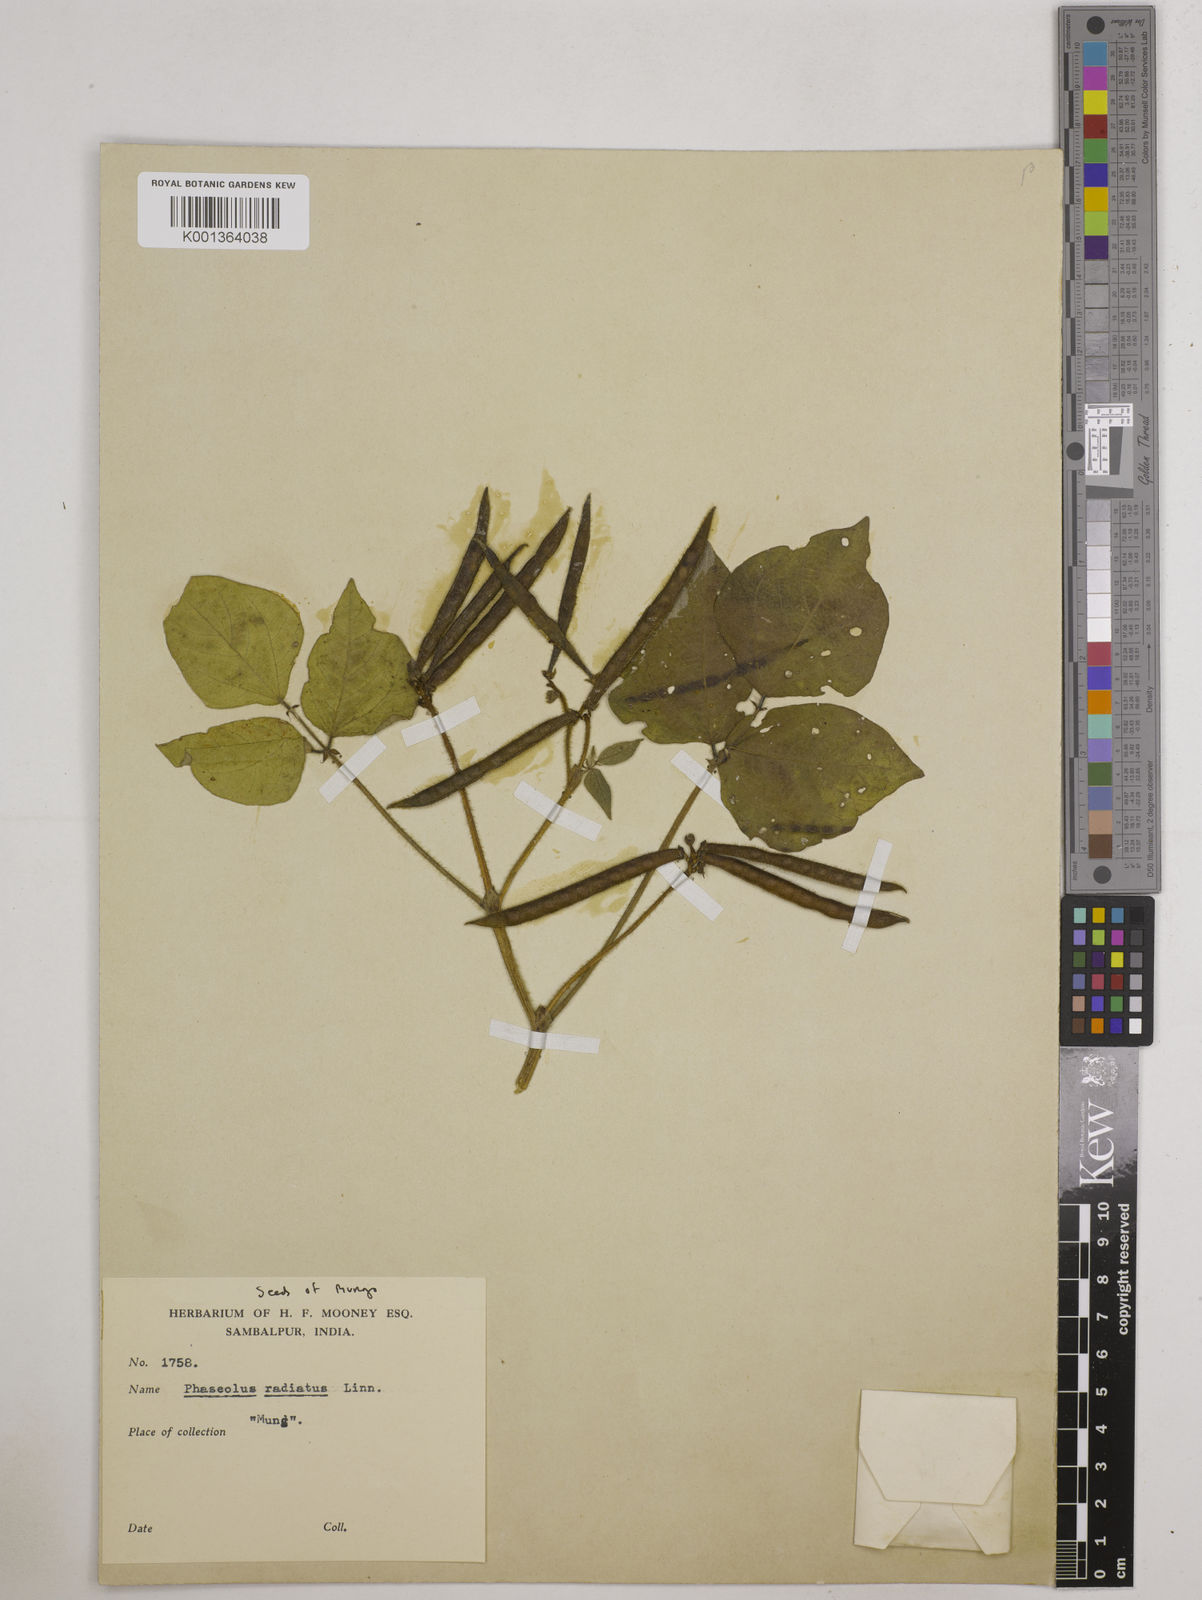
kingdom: Plantae
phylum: Tracheophyta
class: Magnoliopsida
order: Fabales
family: Fabaceae
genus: Vigna
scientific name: Vigna radiata
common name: Mung-bean
